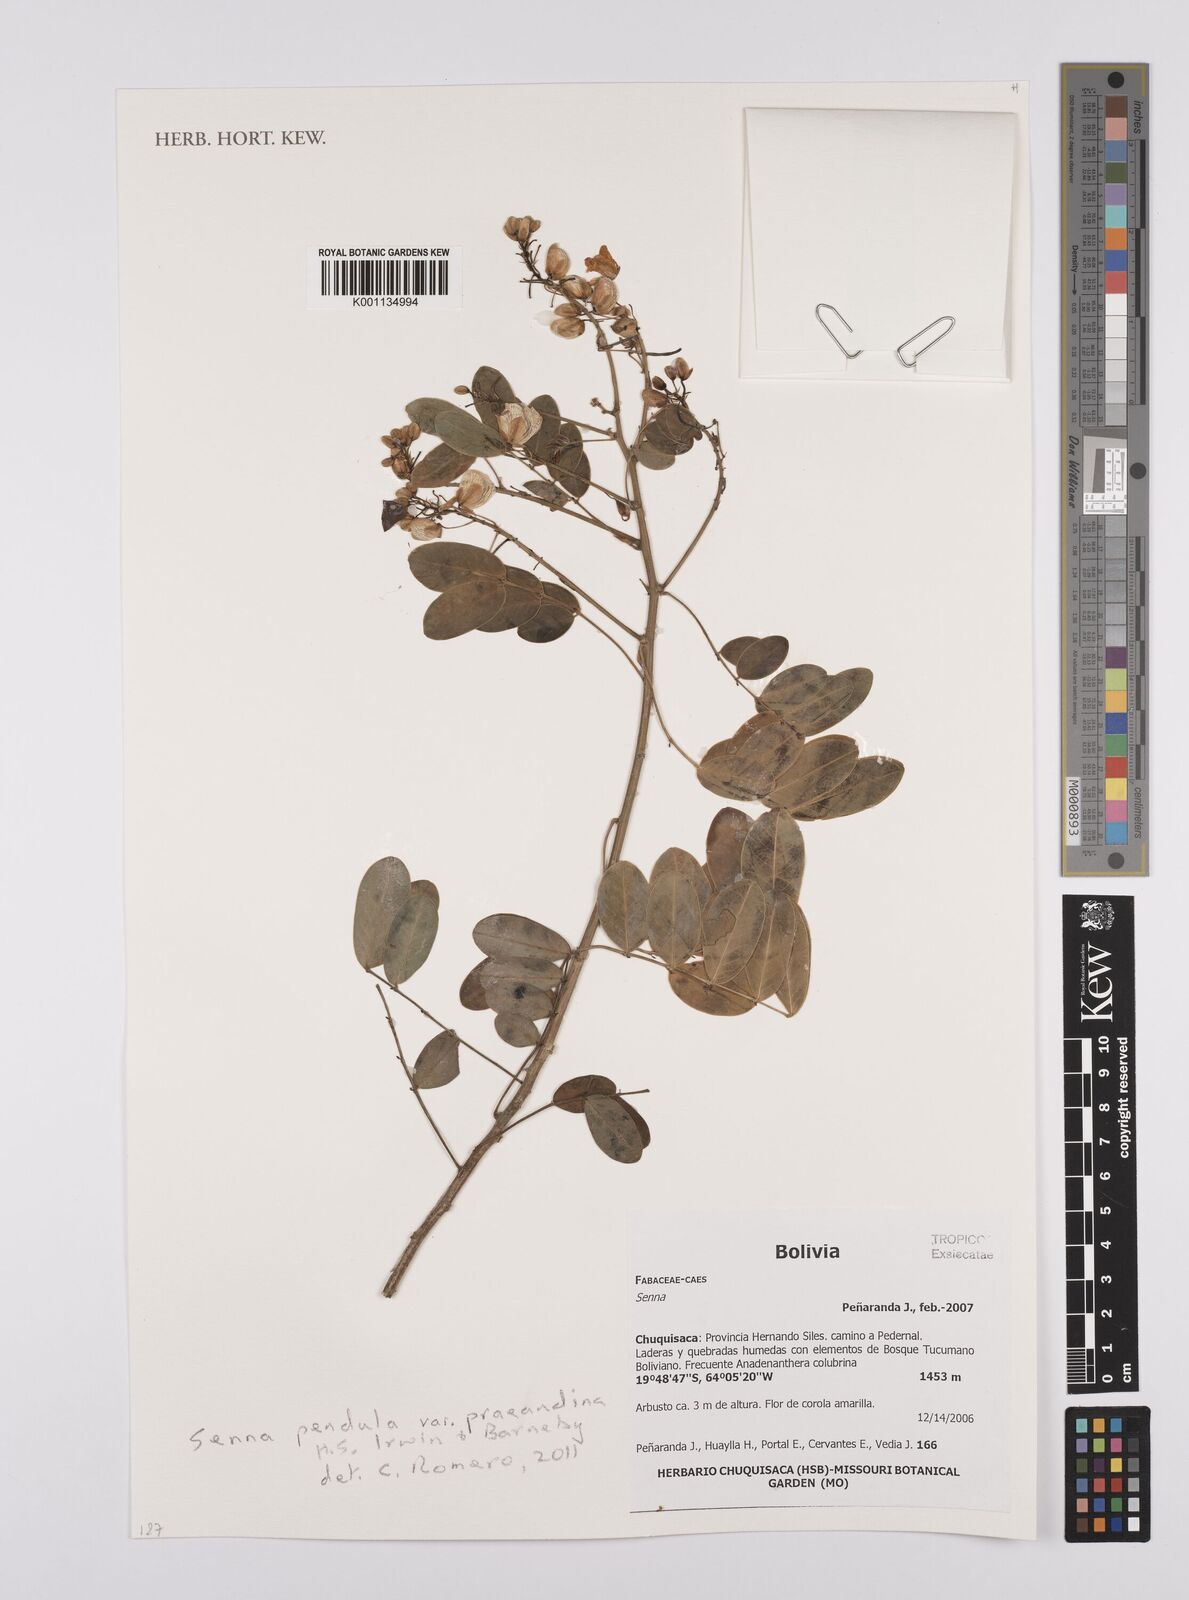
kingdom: Plantae
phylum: Tracheophyta
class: Magnoliopsida
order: Fabales
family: Fabaceae
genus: Senna
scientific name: Senna pendula
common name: Easter cassia
